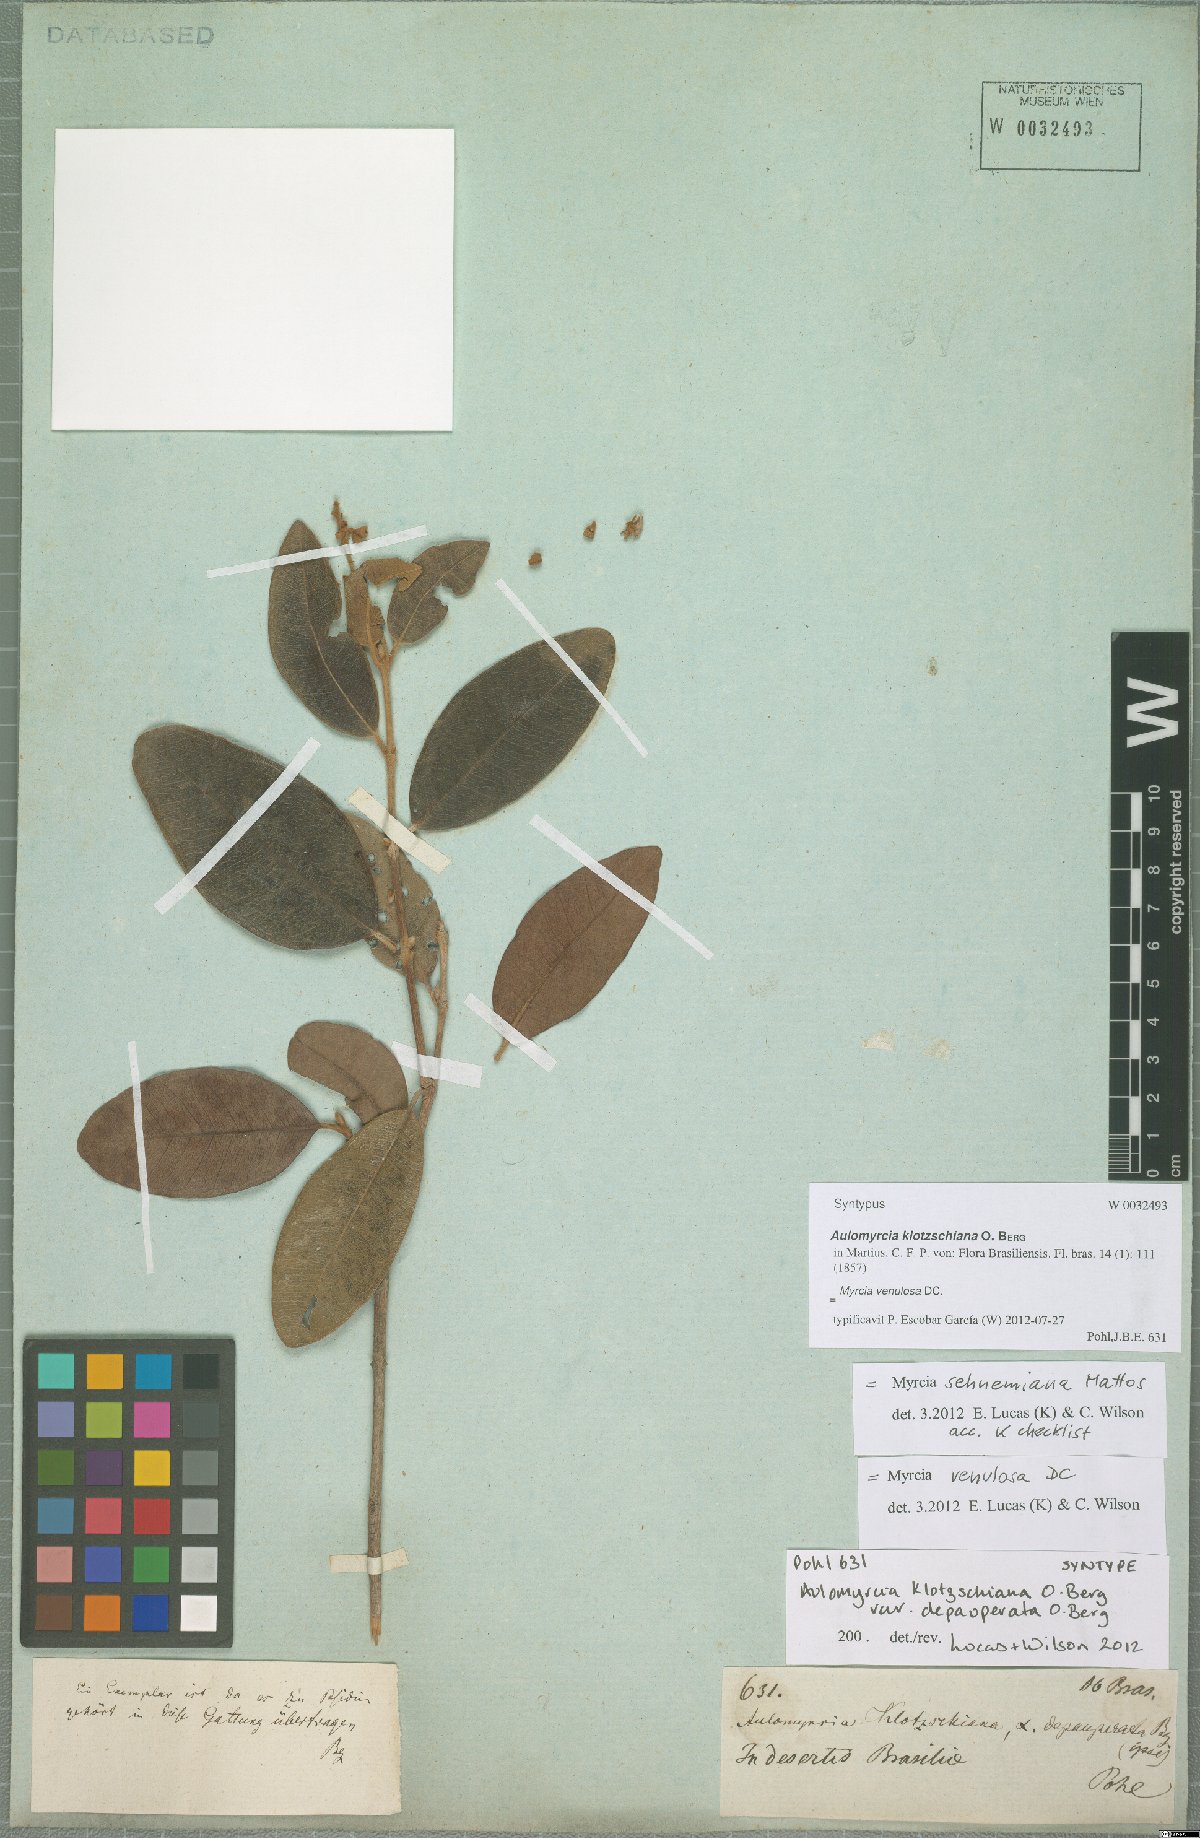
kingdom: Plantae
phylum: Tracheophyta
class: Magnoliopsida
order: Myrtales
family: Myrtaceae
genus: Myrcia
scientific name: Myrcia venulosa
